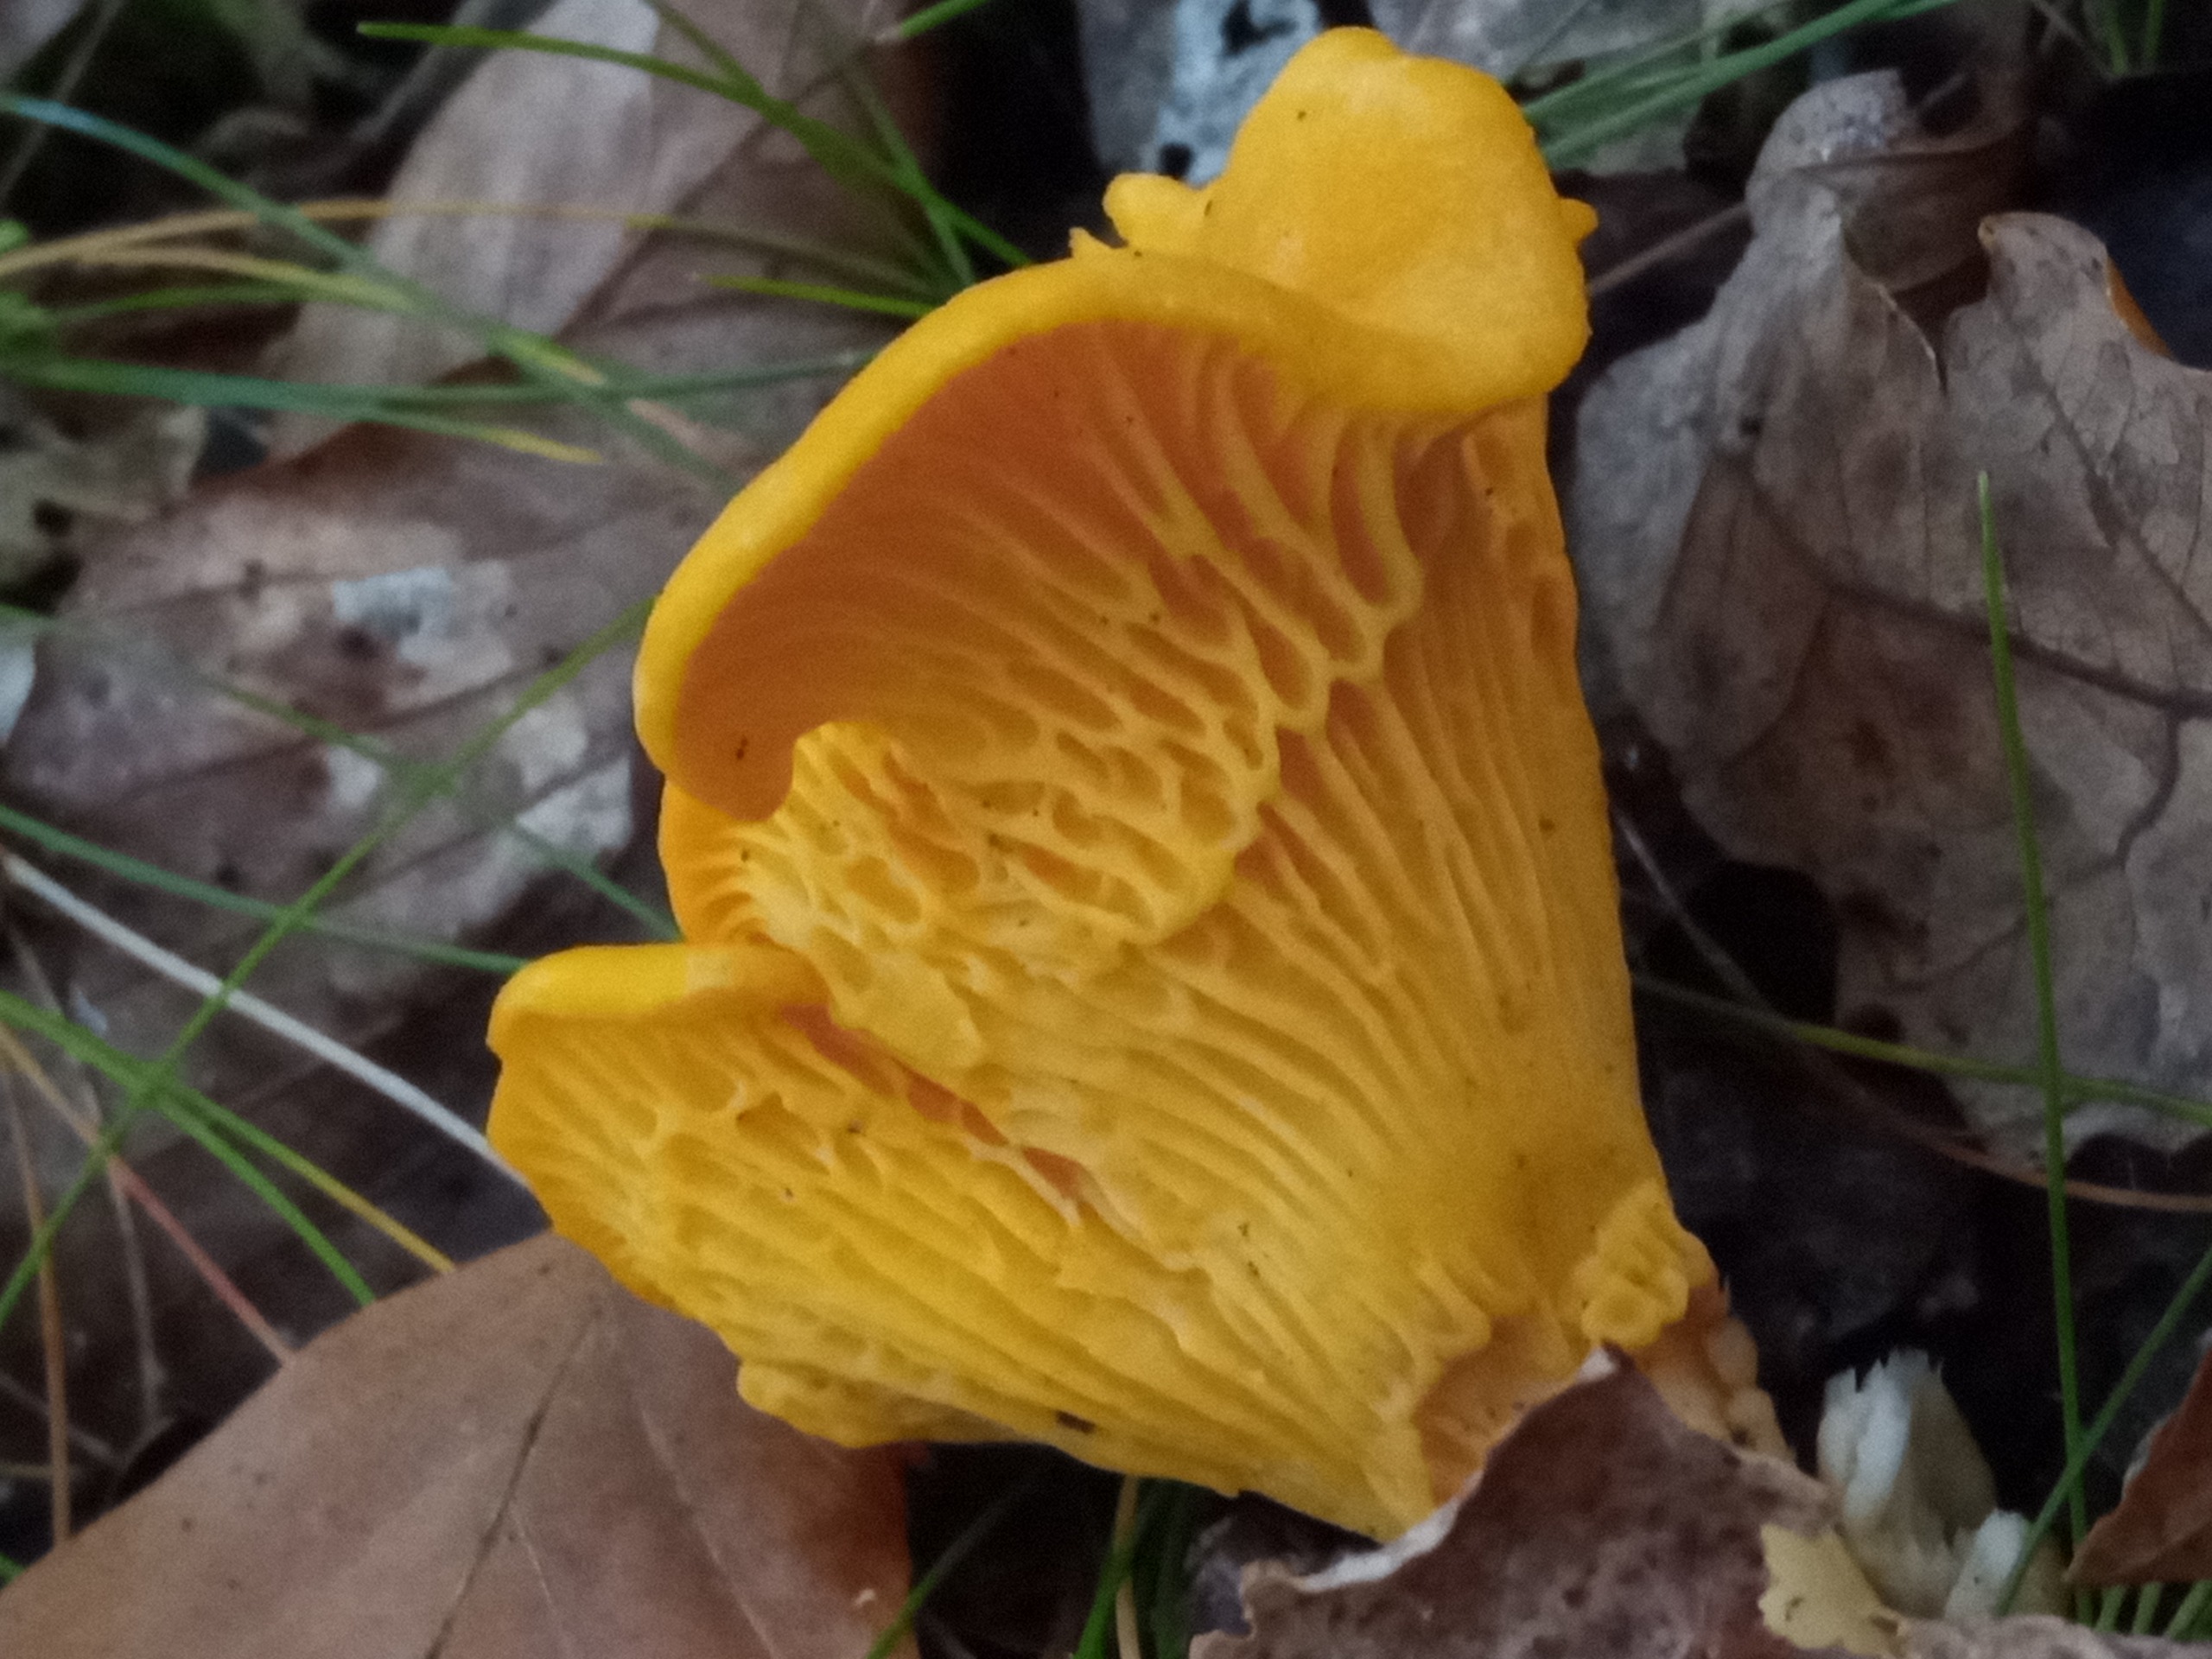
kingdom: Fungi
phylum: Basidiomycota
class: Agaricomycetes
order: Cantharellales
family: Hydnaceae
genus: Cantharellus
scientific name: Cantharellus cibarius
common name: Almindelig kantarel
